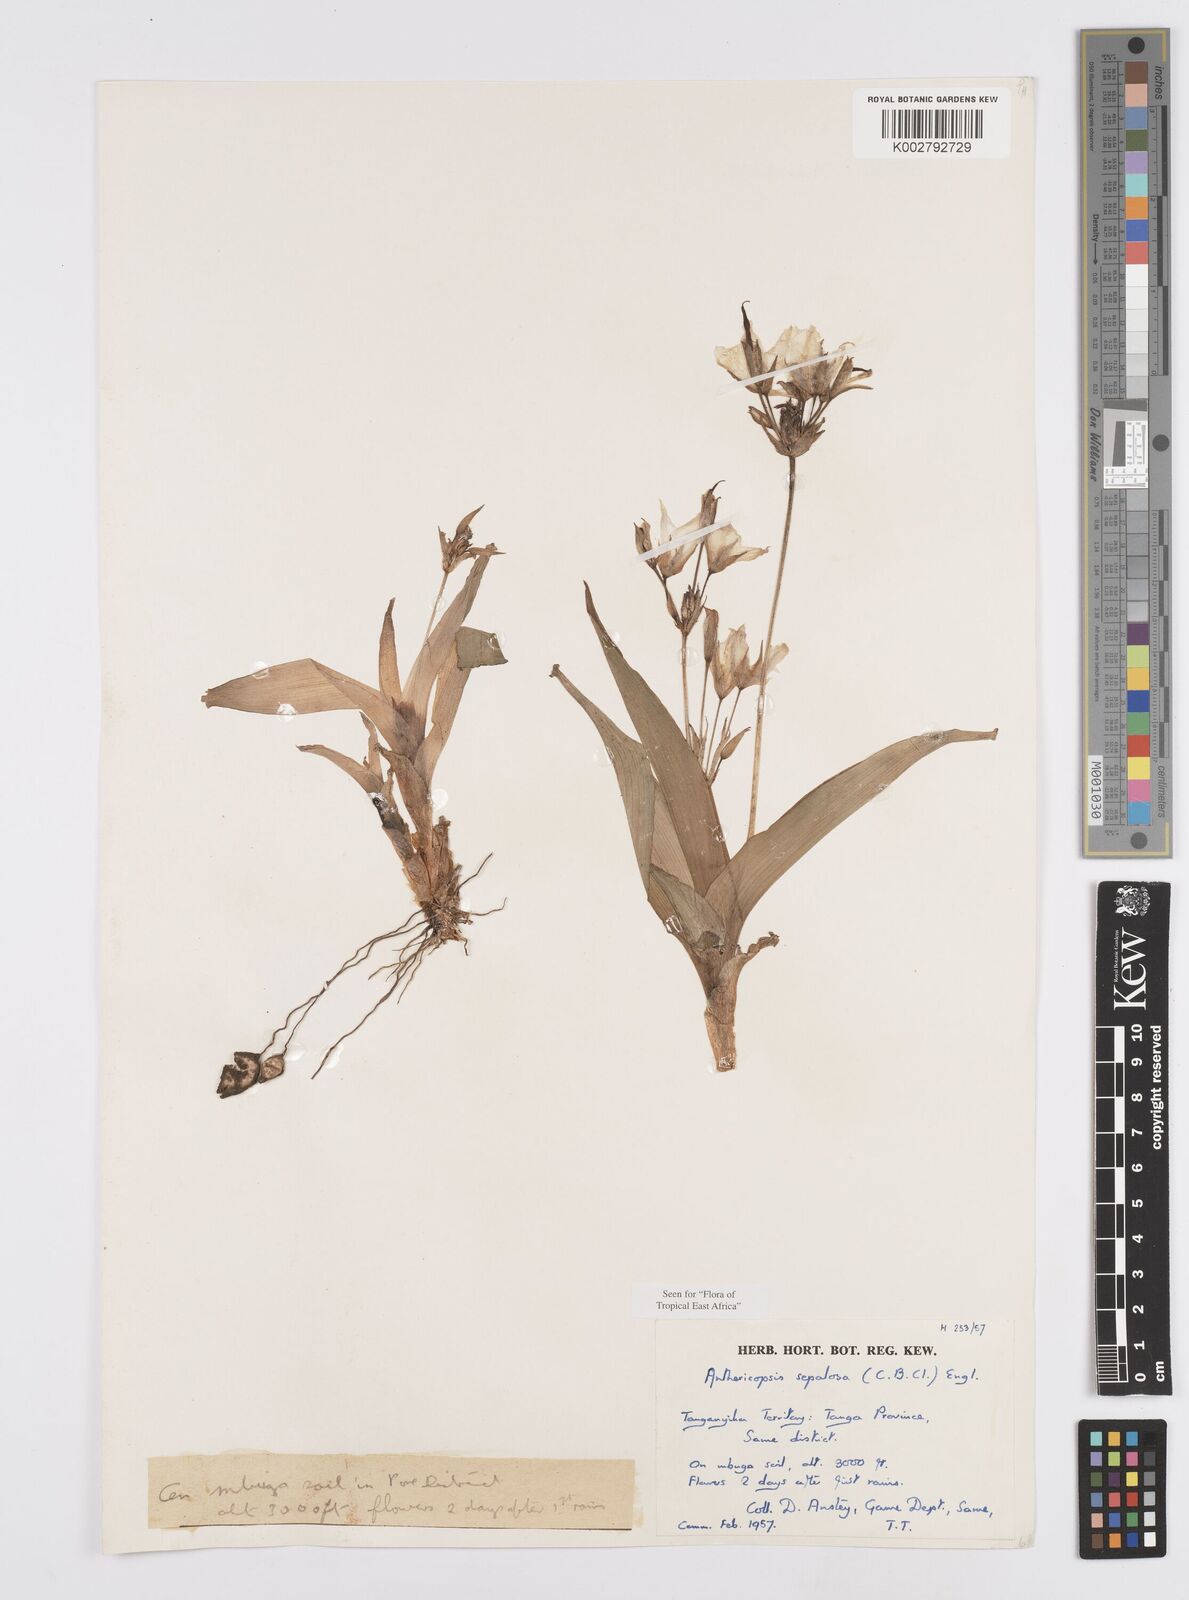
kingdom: Plantae
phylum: Tracheophyta
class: Liliopsida
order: Commelinales
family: Commelinaceae
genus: Anthericopsis
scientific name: Anthericopsis sepalosa
